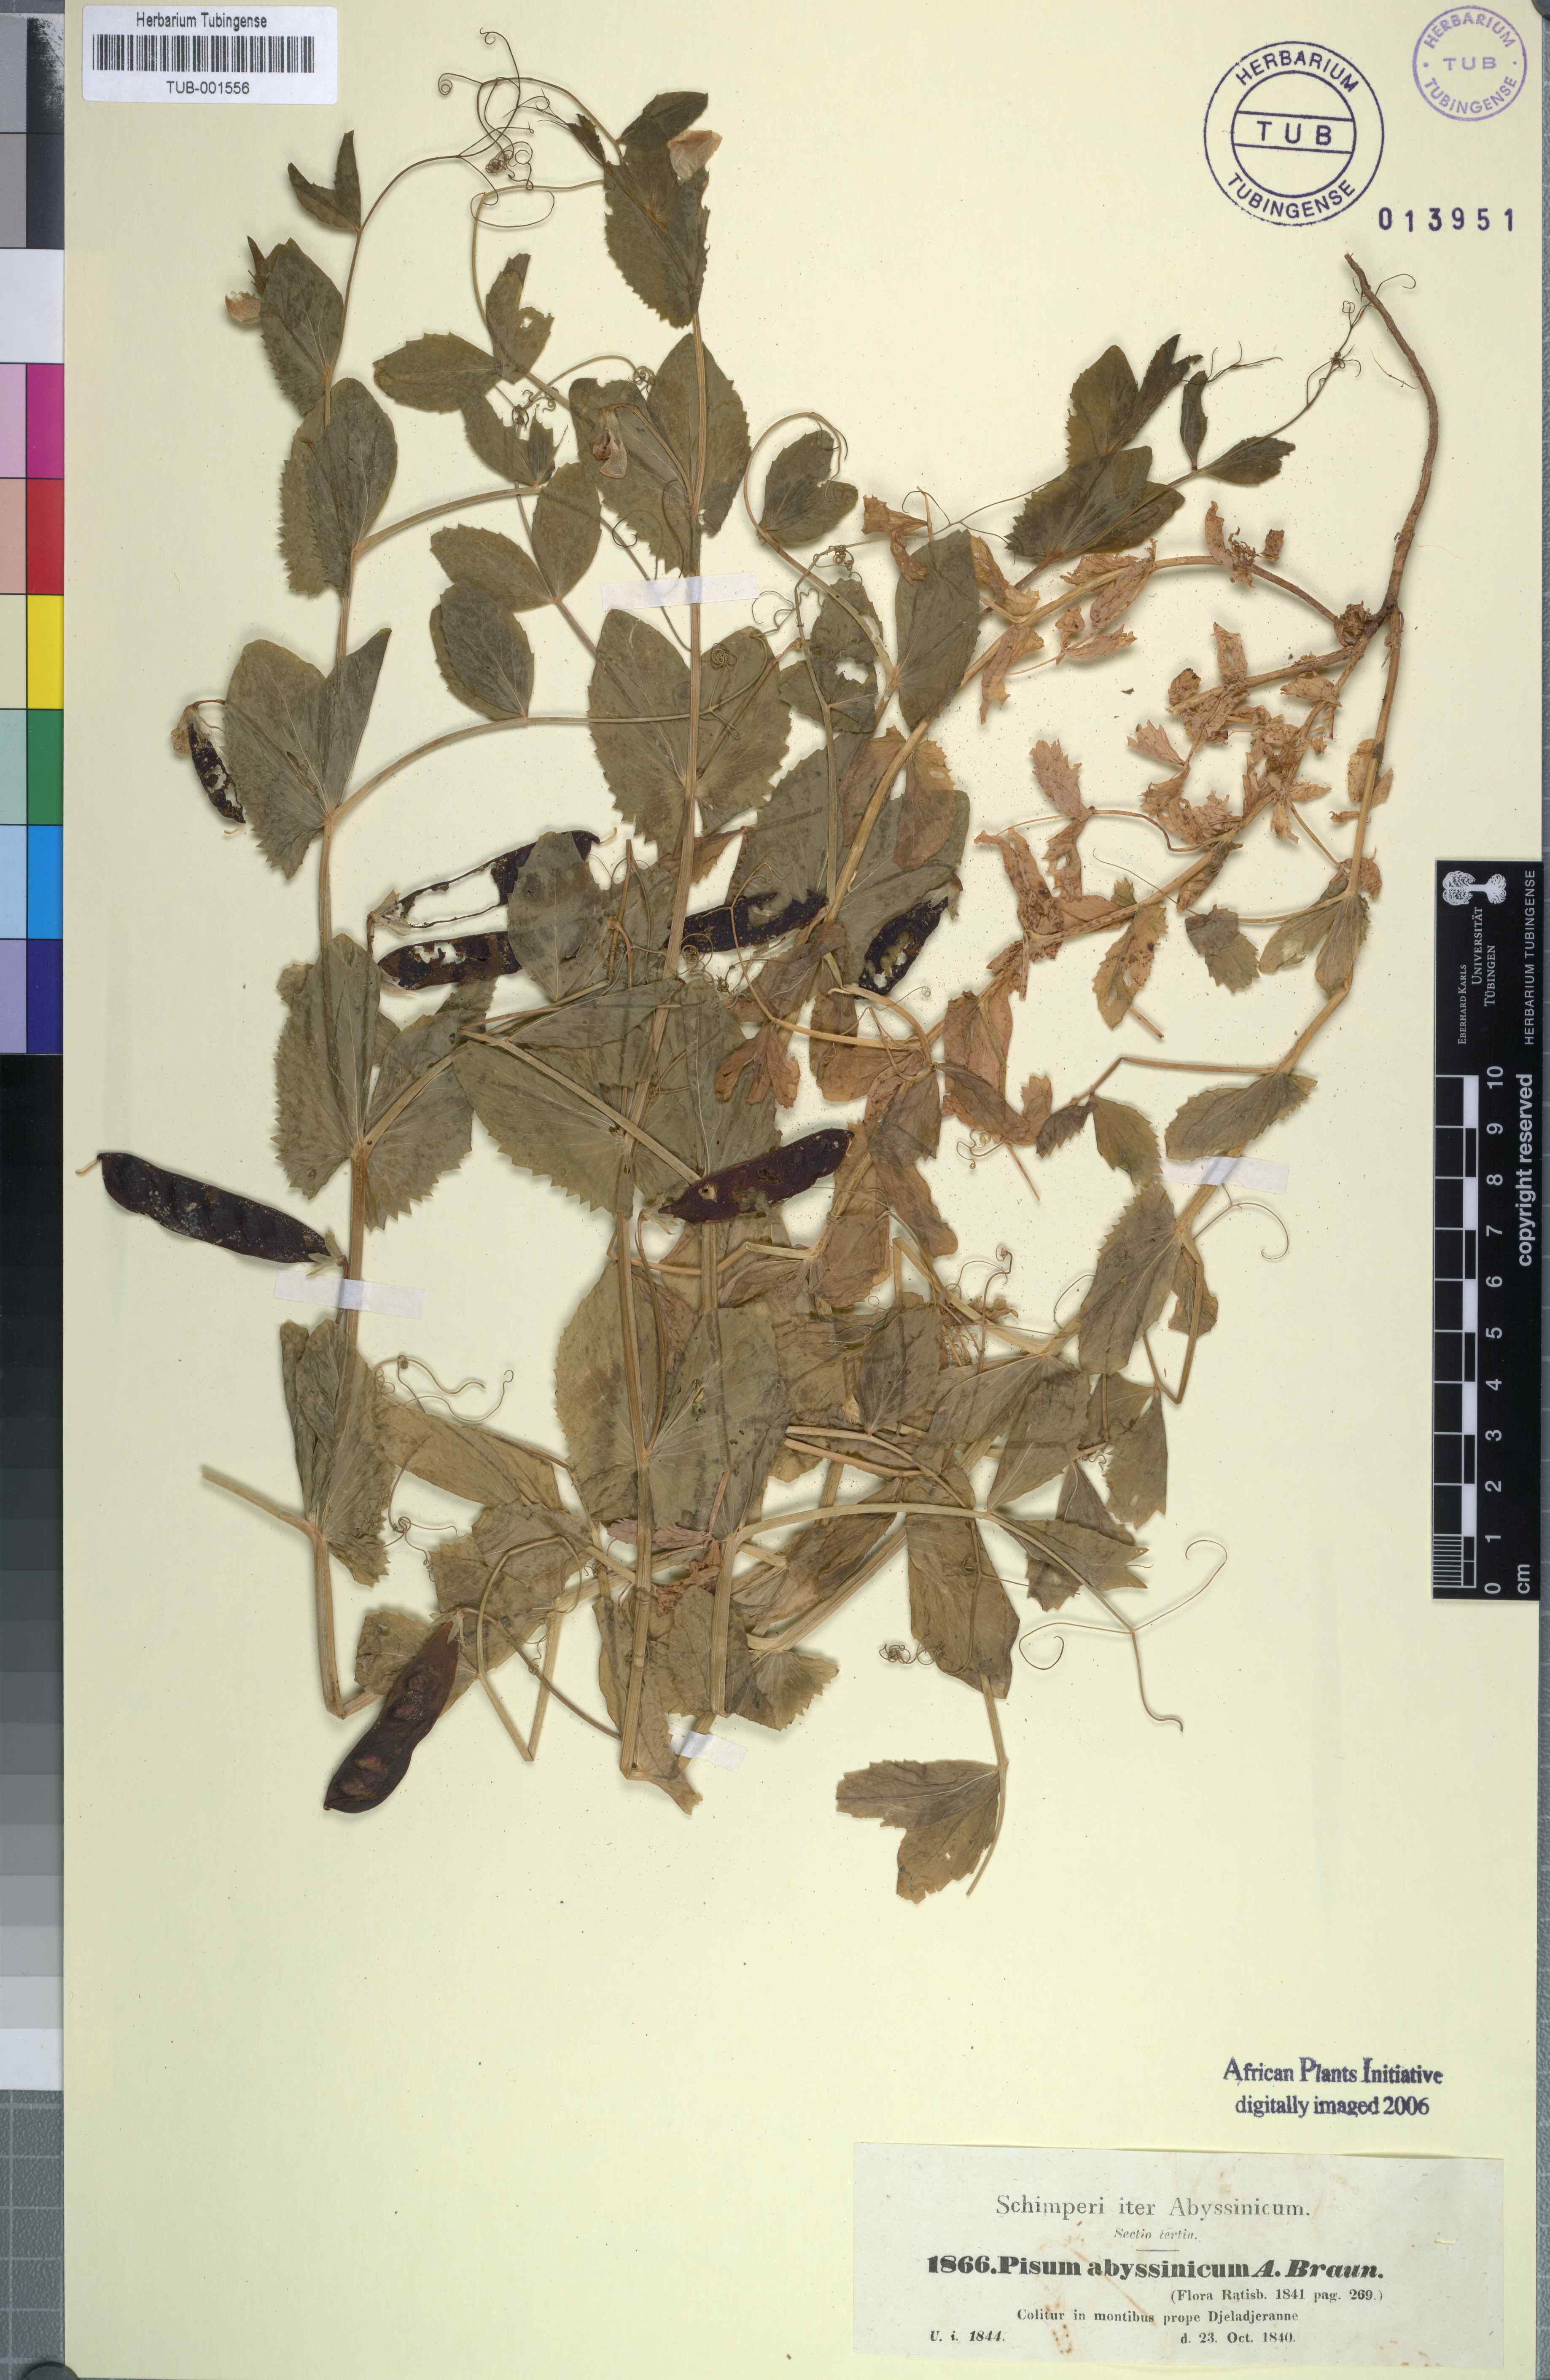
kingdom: Plantae
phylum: Tracheophyta
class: Magnoliopsida
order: Fabales
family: Fabaceae
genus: Lathyrus
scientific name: Lathyrus oleraceus
